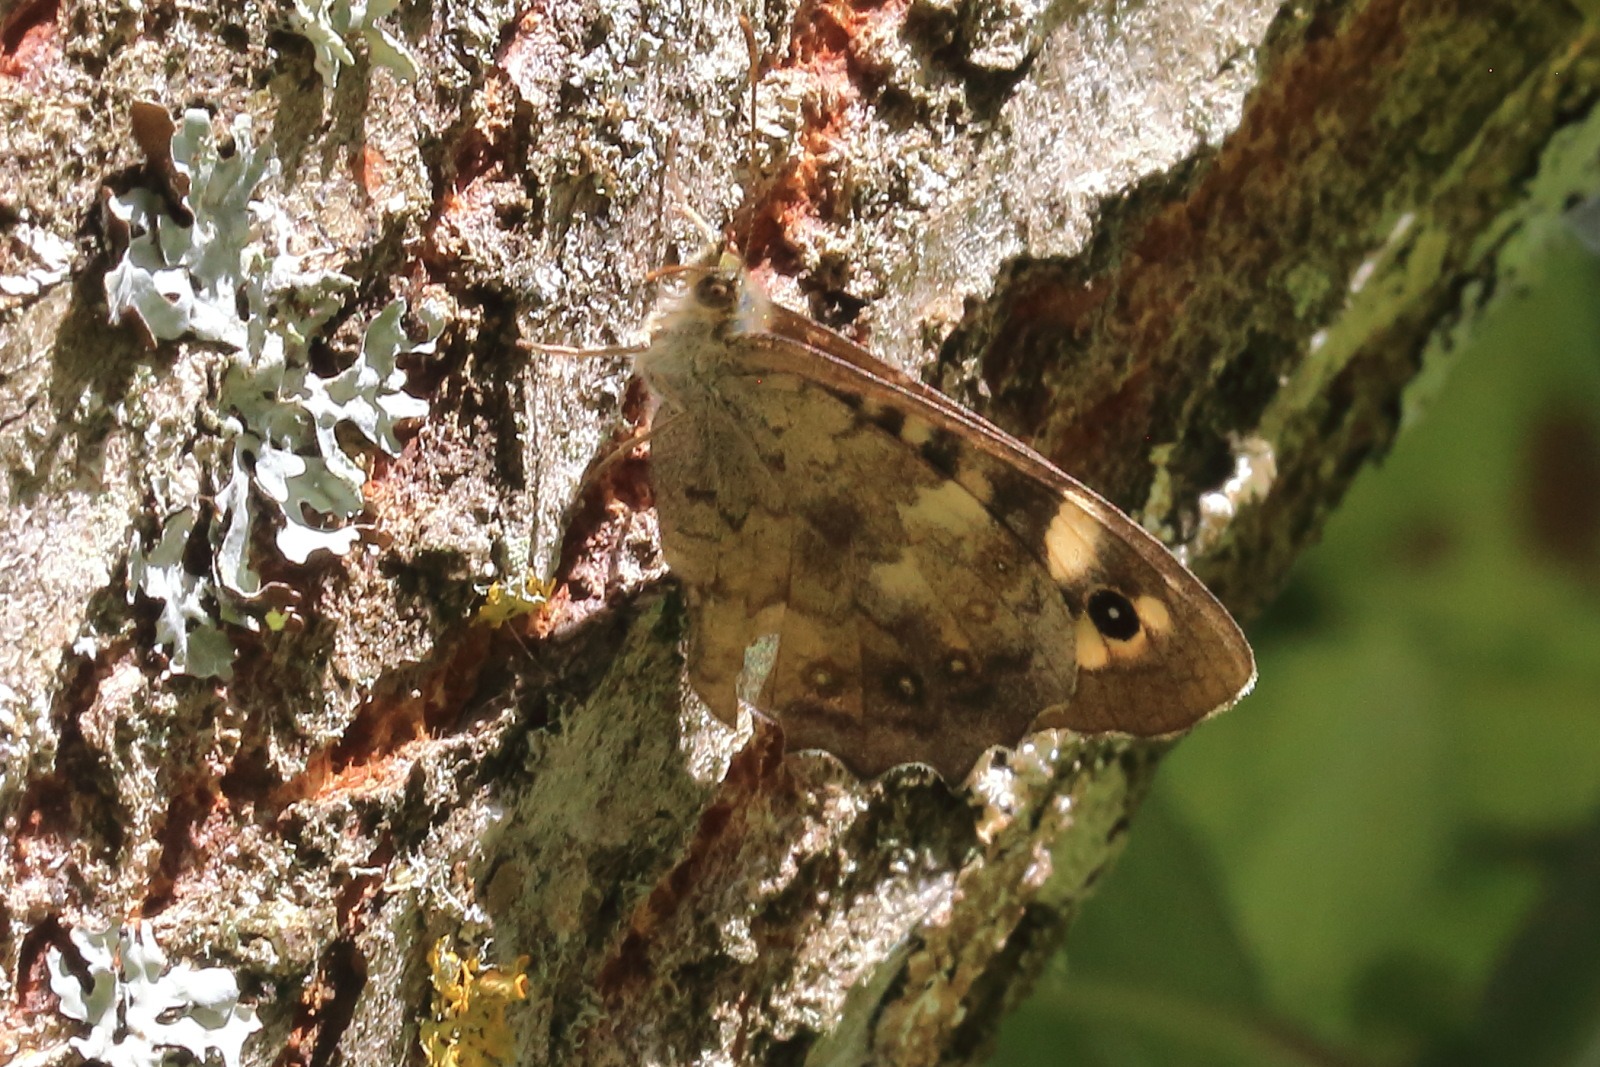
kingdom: Animalia
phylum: Arthropoda
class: Insecta
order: Lepidoptera
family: Nymphalidae
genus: Pararge
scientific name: Pararge aegeria
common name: Skovrandøje
